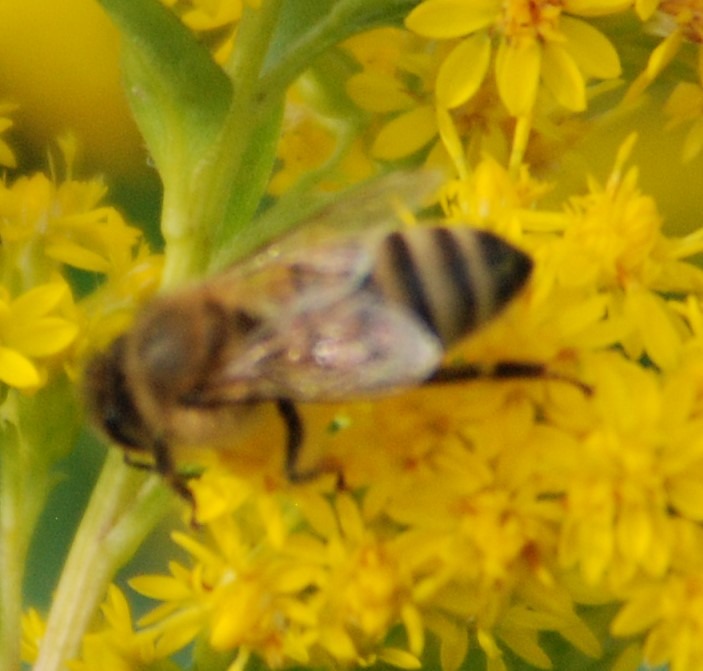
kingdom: Animalia
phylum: Arthropoda
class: Insecta
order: Hymenoptera
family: Apidae
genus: Apis
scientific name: Apis mellifera
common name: Honningbi
